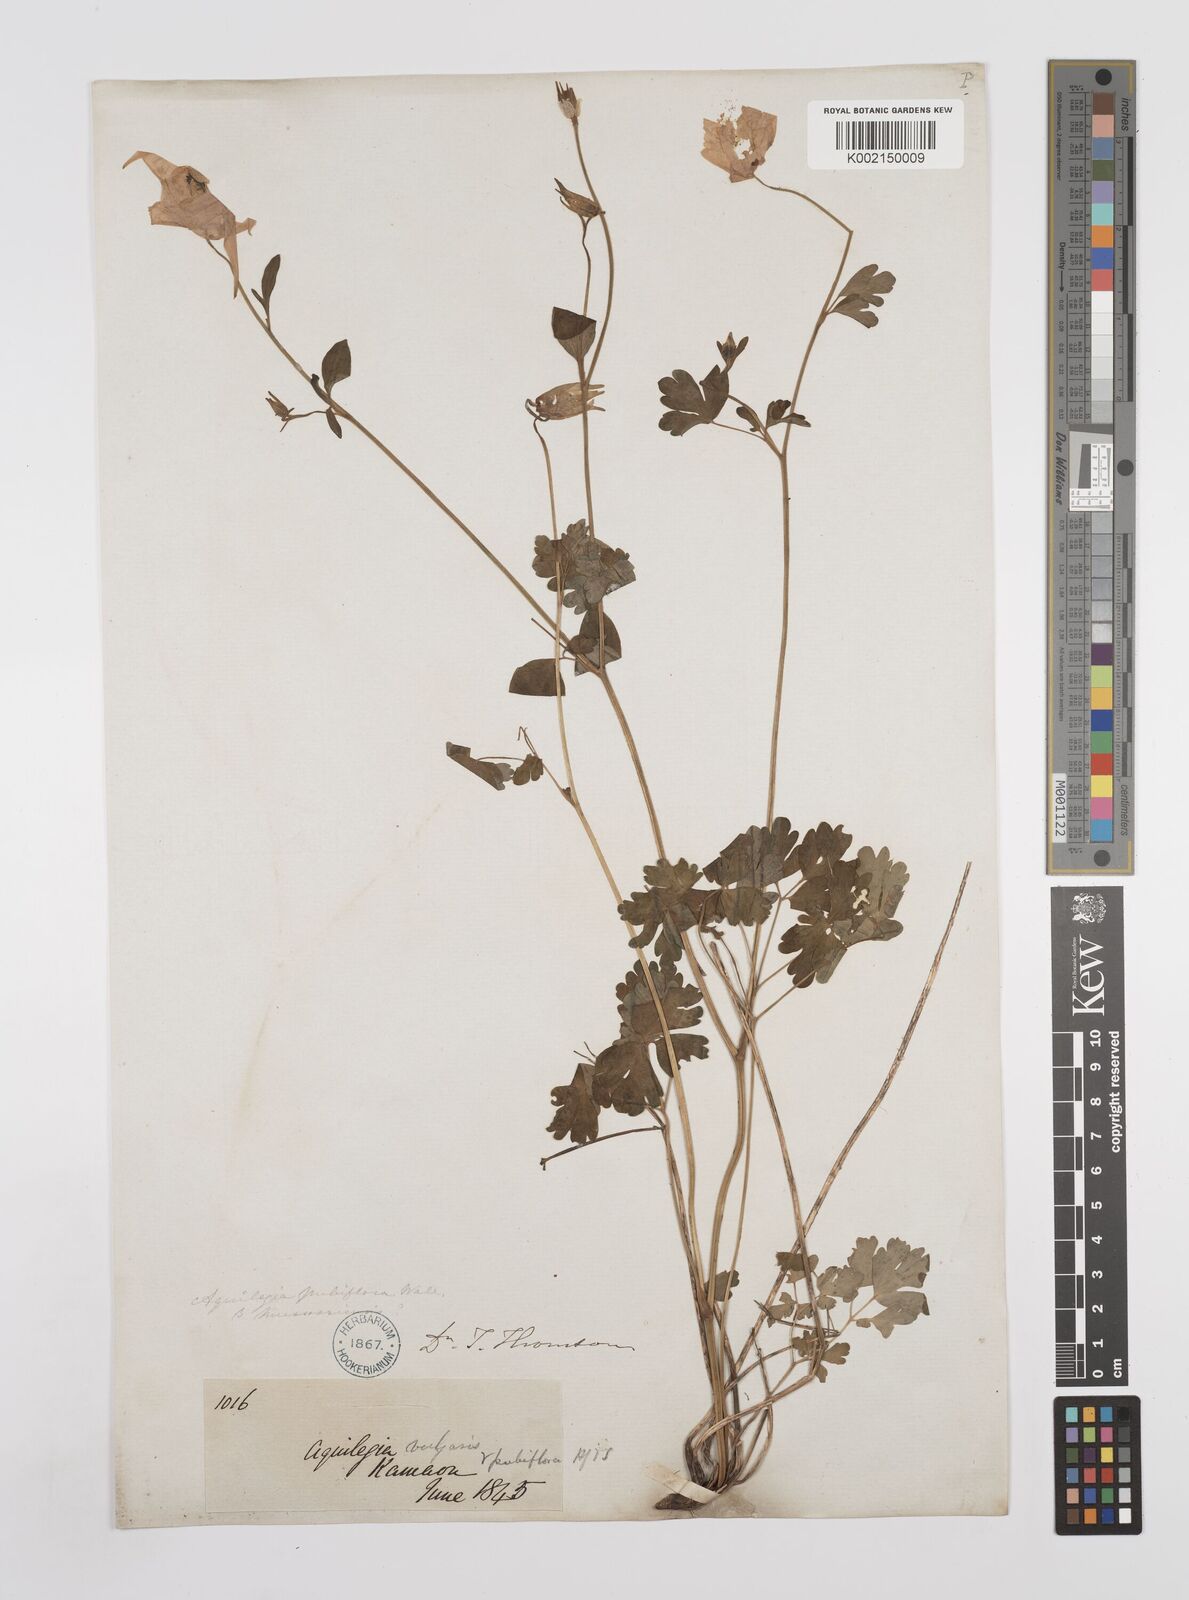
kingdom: Plantae
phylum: Tracheophyta
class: Magnoliopsida
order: Ranunculales
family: Ranunculaceae
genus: Aquilegia
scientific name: Aquilegia pubiflora
